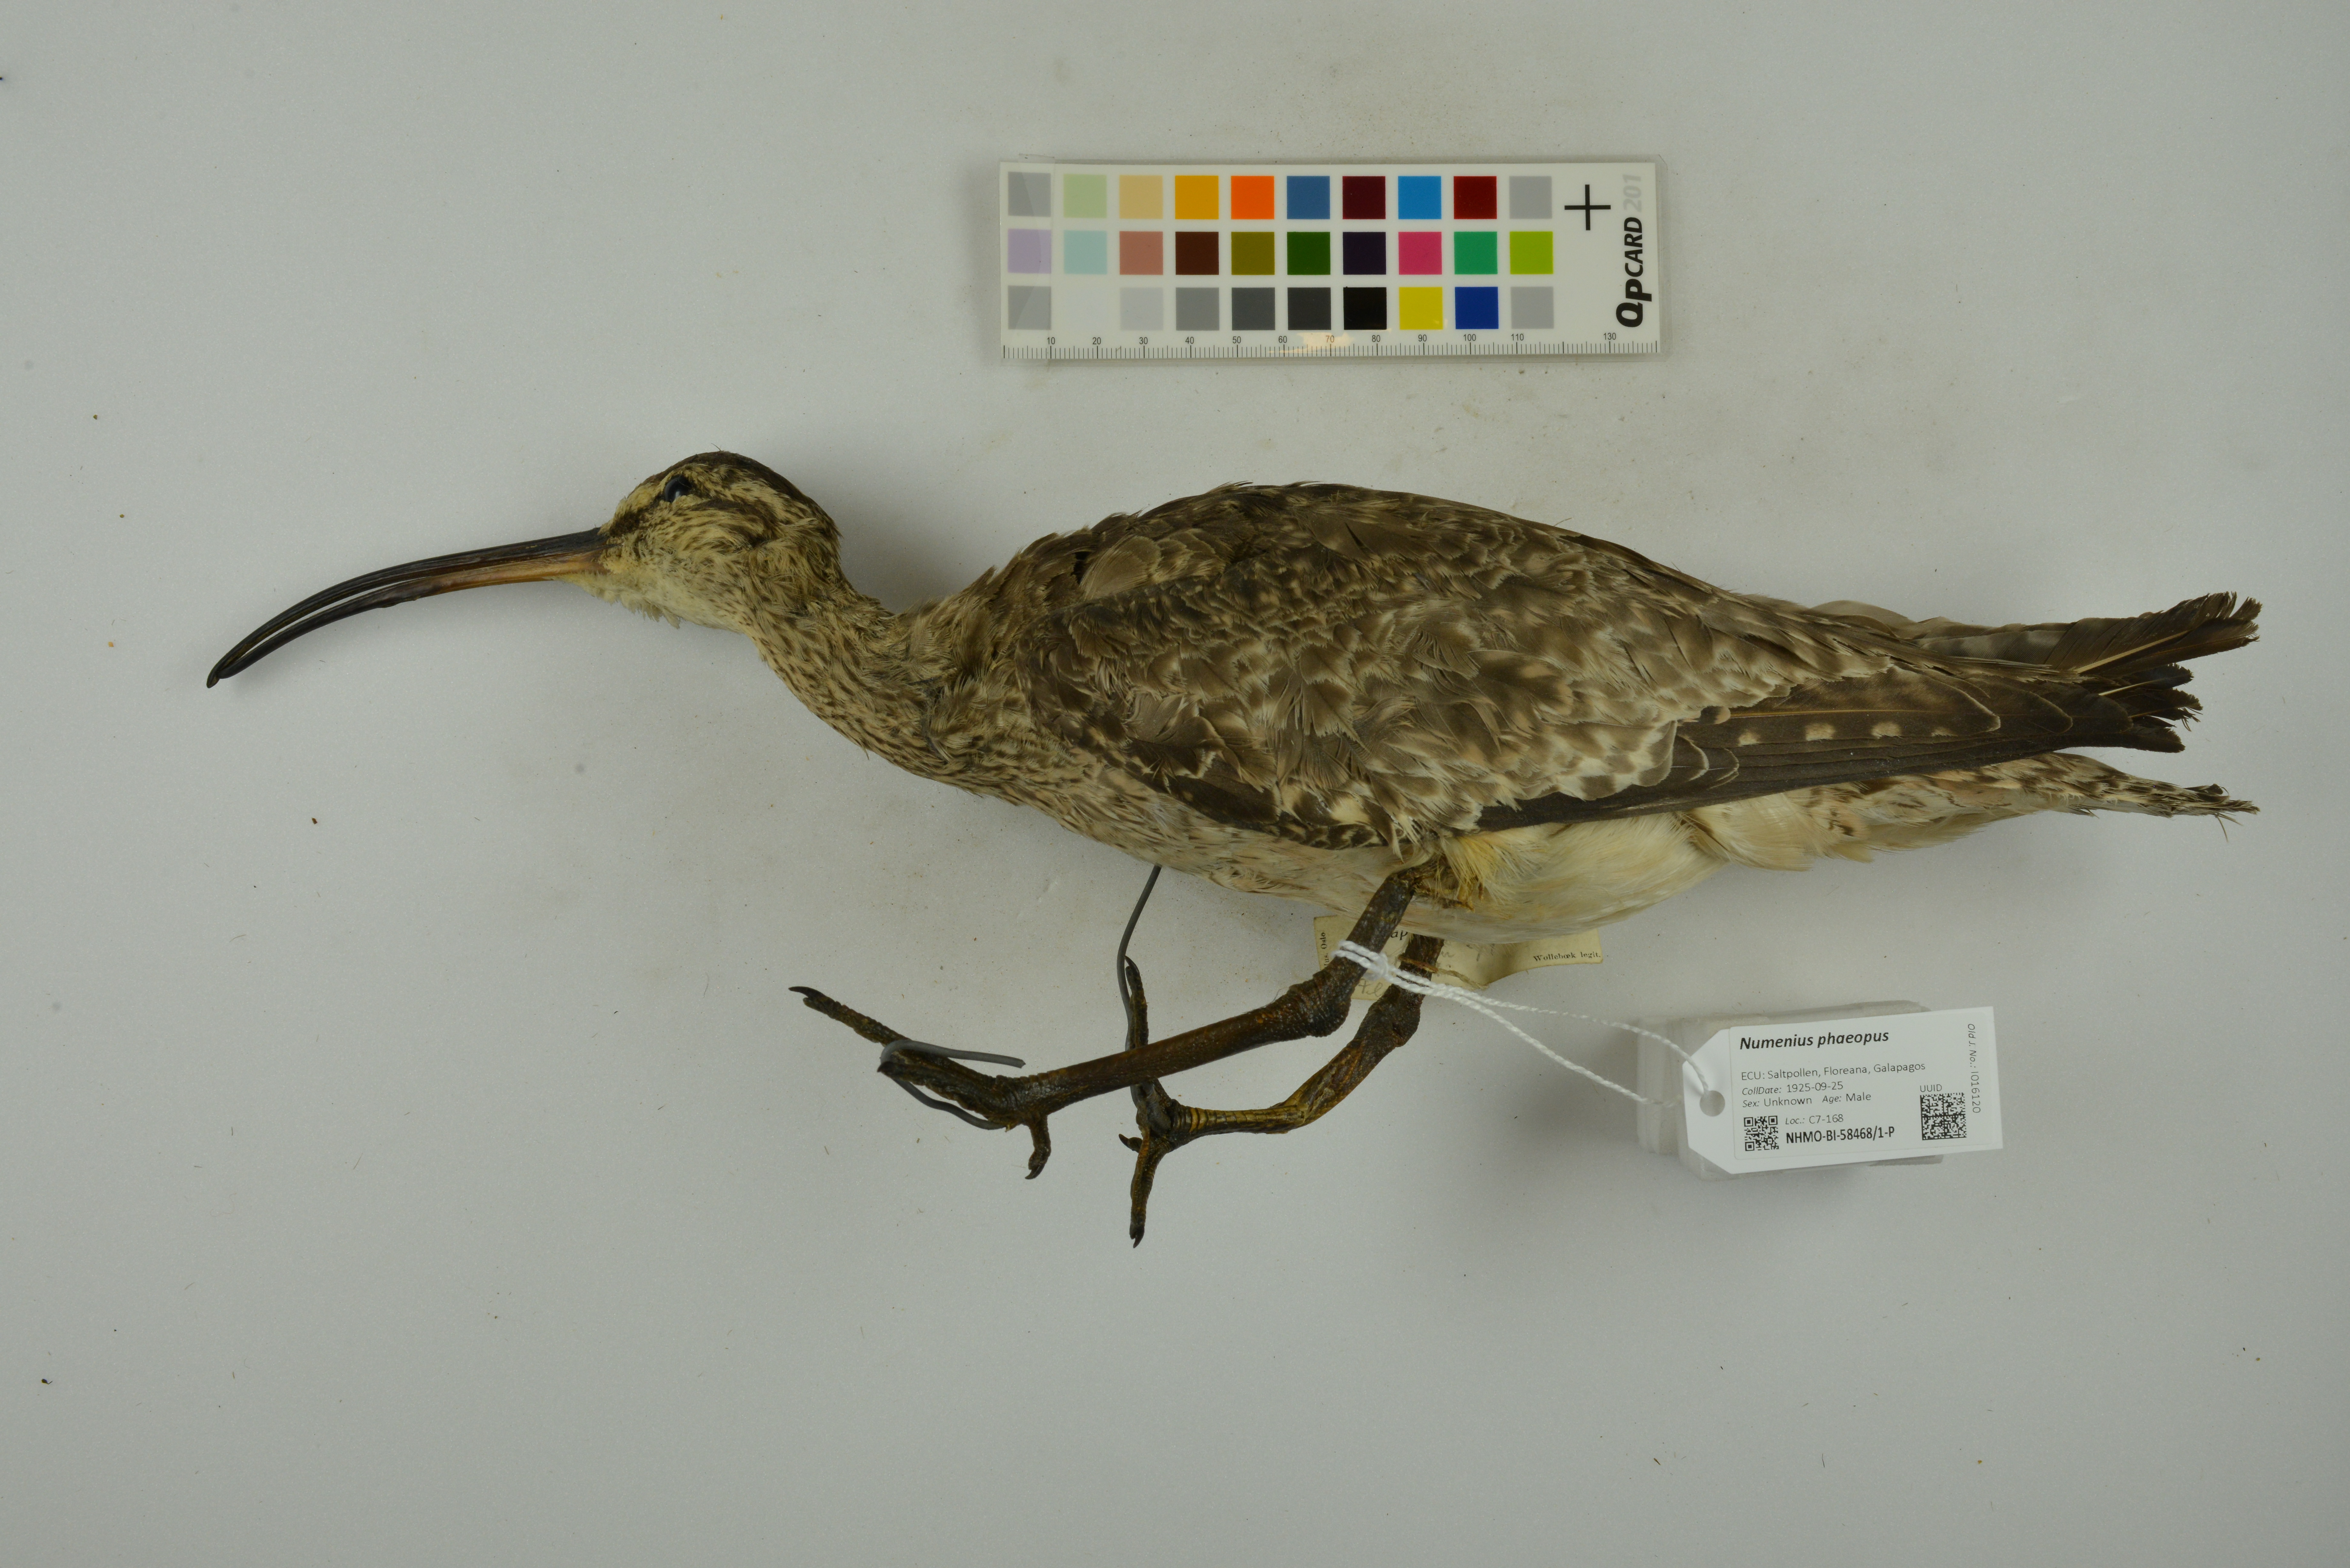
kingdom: Animalia
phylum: Chordata
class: Aves
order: Charadriiformes
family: Scolopacidae
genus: Numenius
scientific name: Numenius phaeopus
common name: Whimbrel
